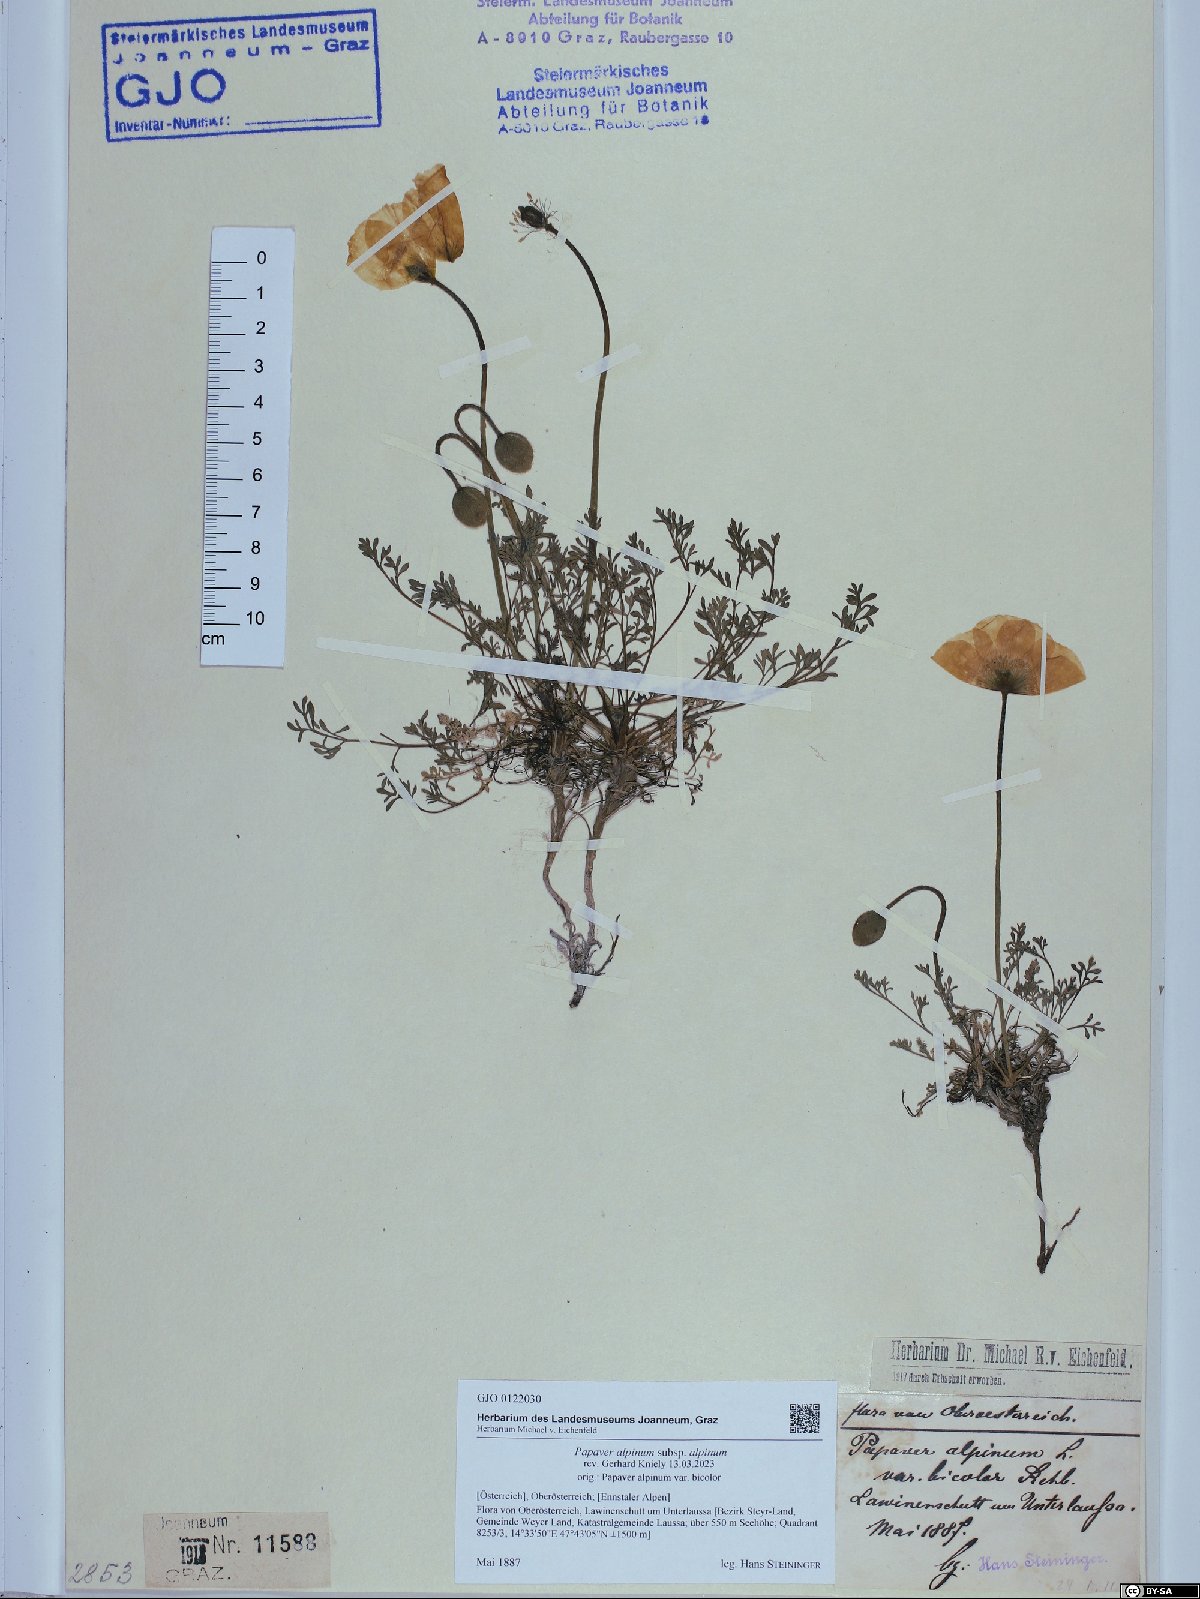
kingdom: Plantae
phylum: Tracheophyta
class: Magnoliopsida
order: Ranunculales
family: Papaveraceae
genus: Papaver
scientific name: Papaver alpinum
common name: Austrian poppy
